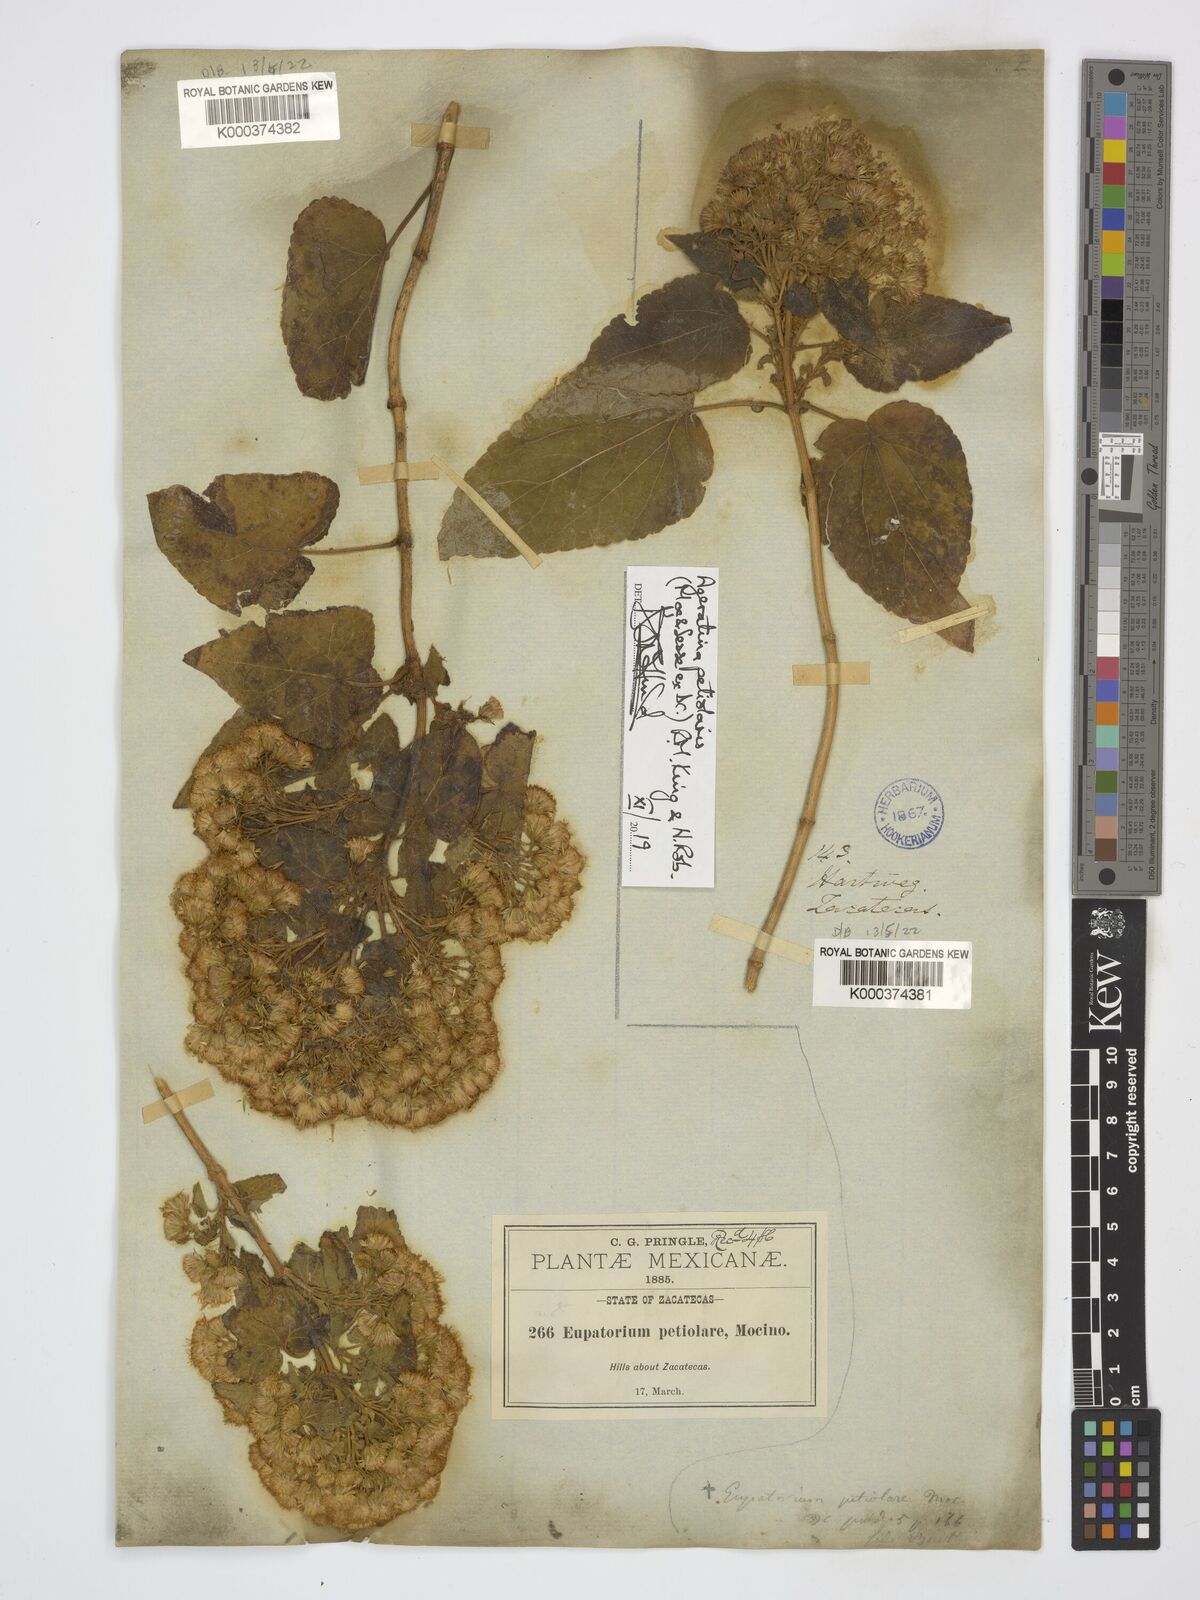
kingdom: Plantae
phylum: Tracheophyta
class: Magnoliopsida
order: Asterales
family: Asteraceae
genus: Ageratina
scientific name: Ageratina petiolaris
